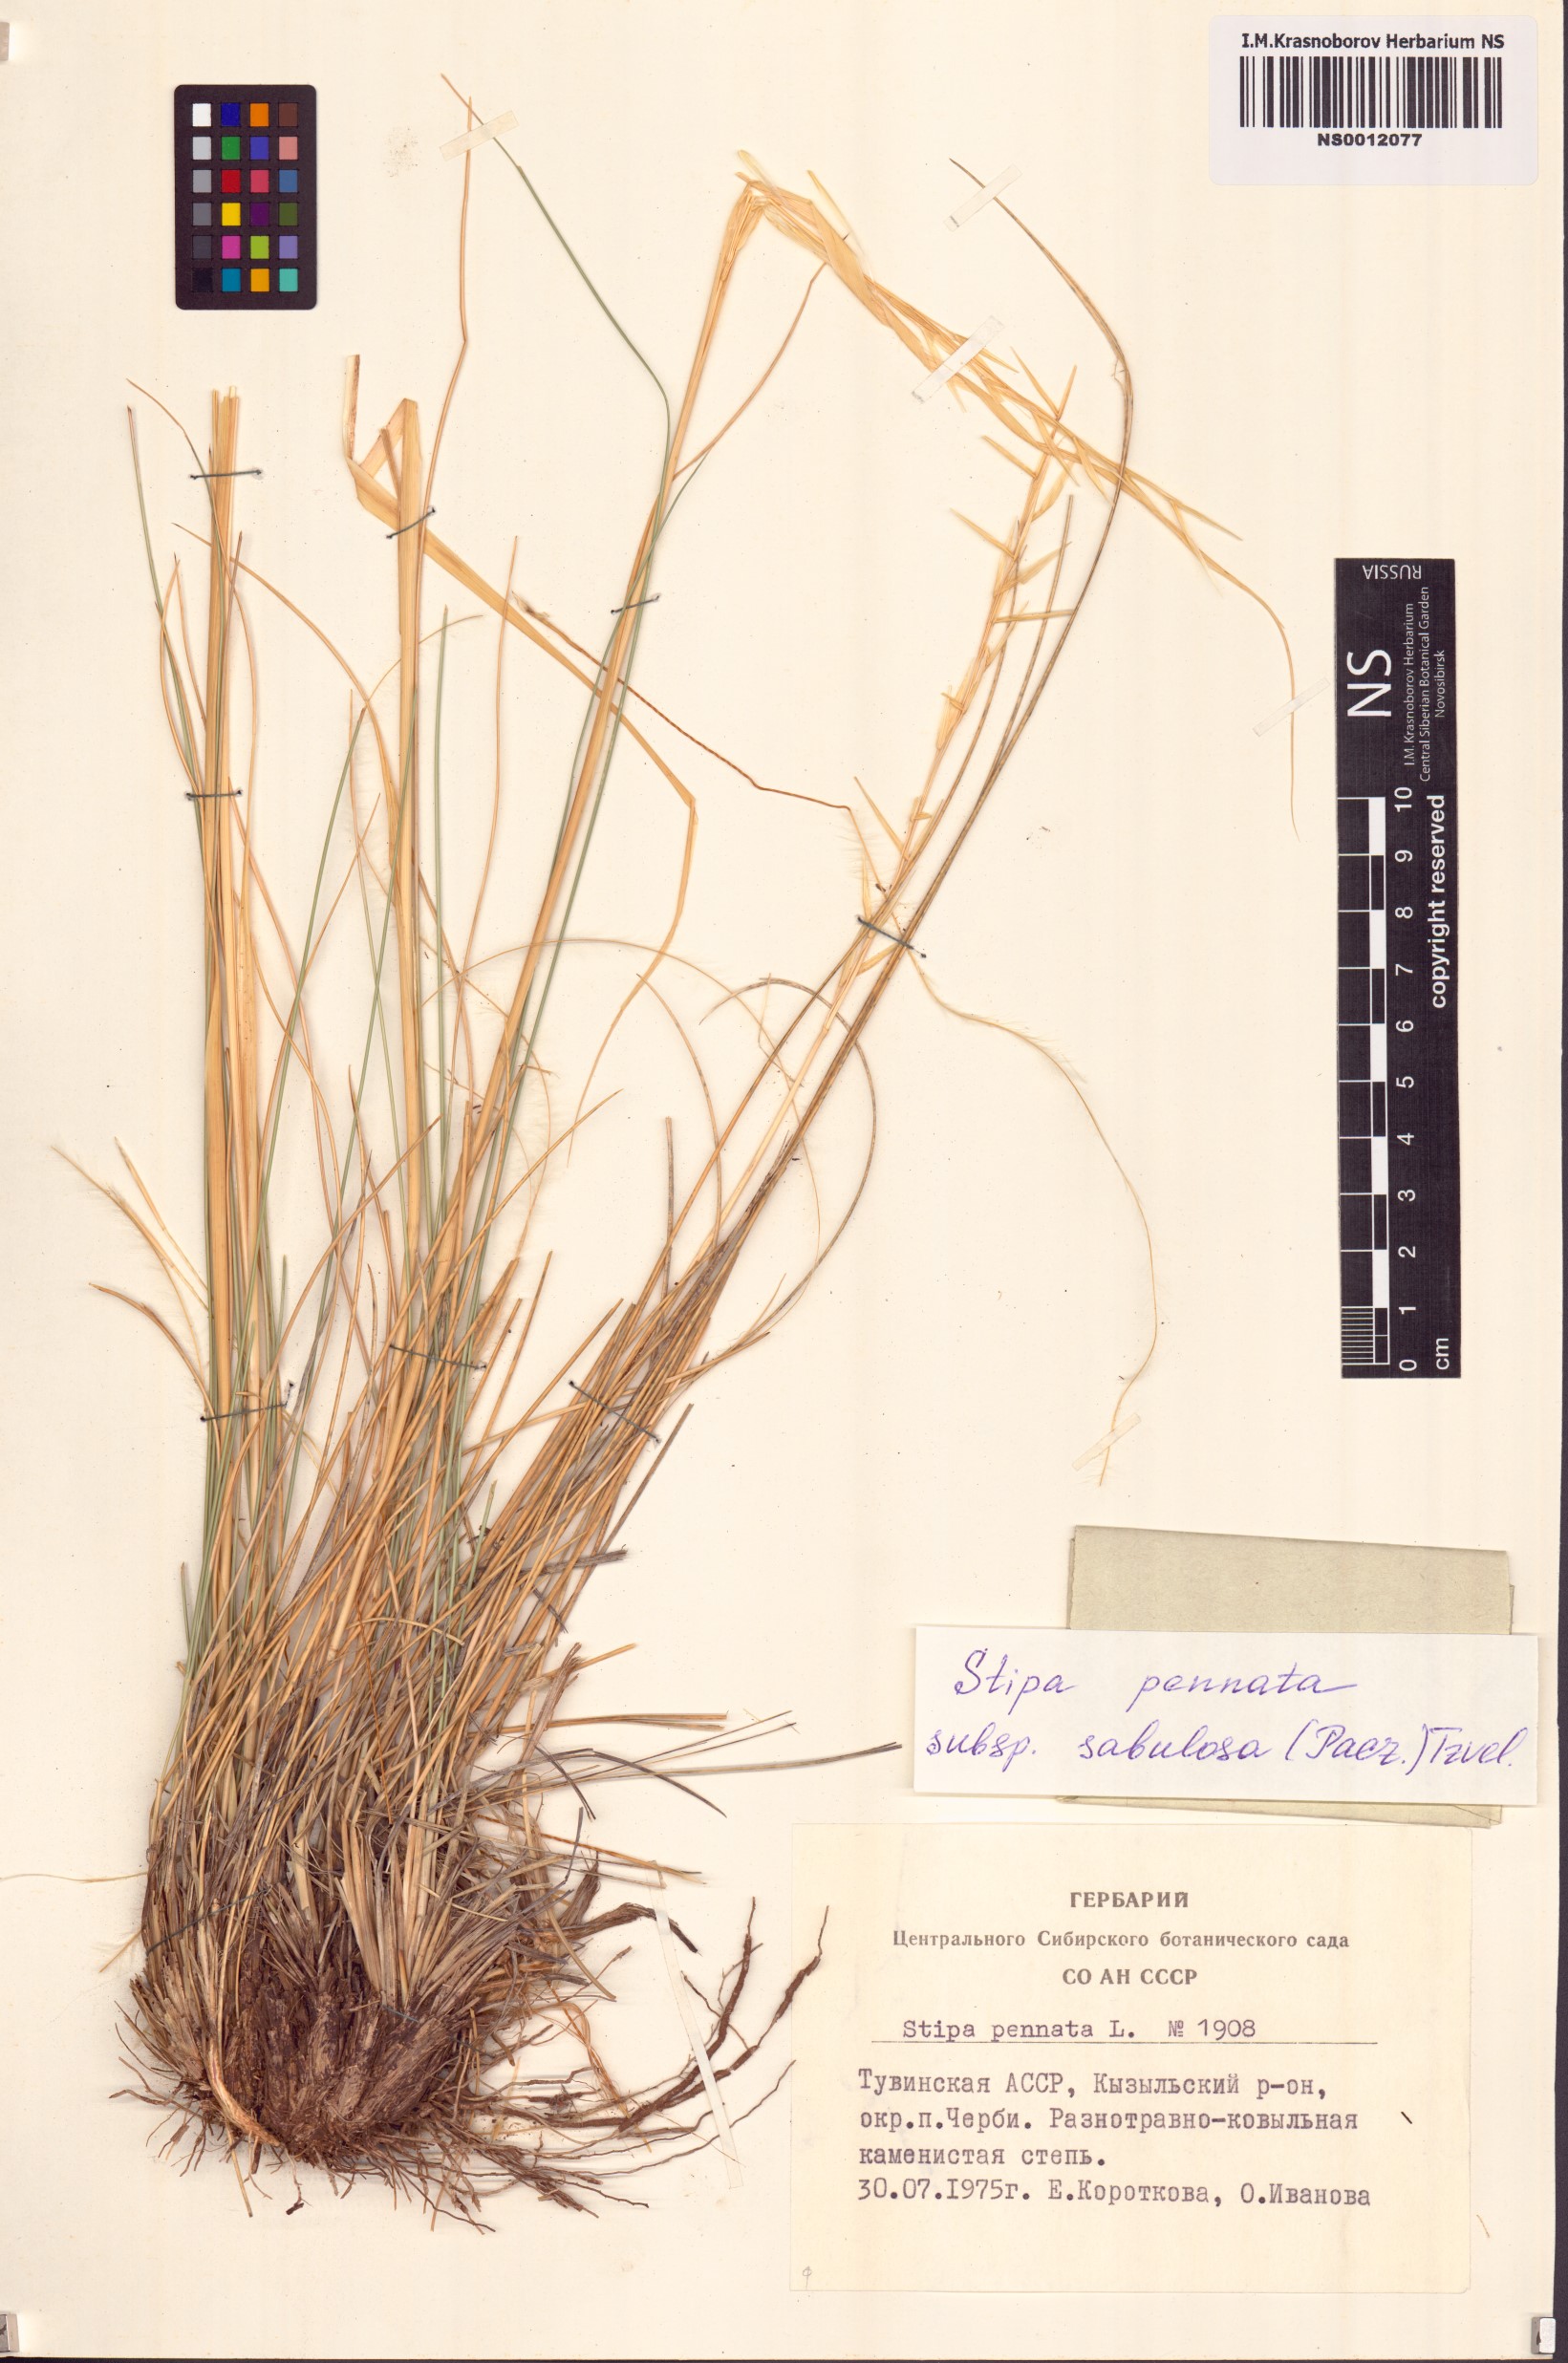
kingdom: Plantae
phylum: Tracheophyta
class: Liliopsida
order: Poales
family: Poaceae
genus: Stipa
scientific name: Stipa borysthenica
